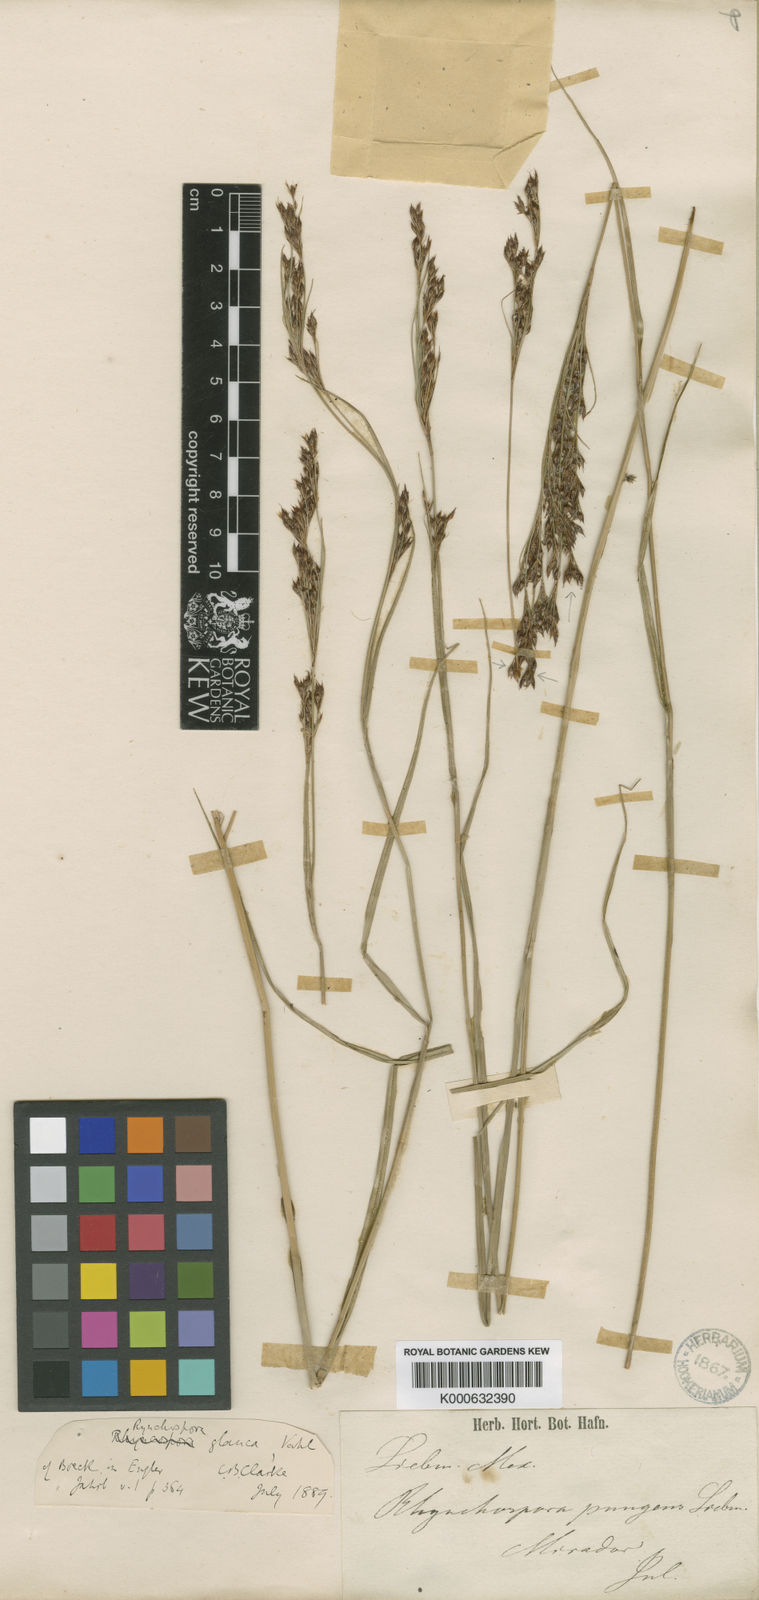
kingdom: Plantae
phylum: Tracheophyta
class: Liliopsida
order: Poales
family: Cyperaceae
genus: Rhynchospora
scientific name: Rhynchospora rugosa
